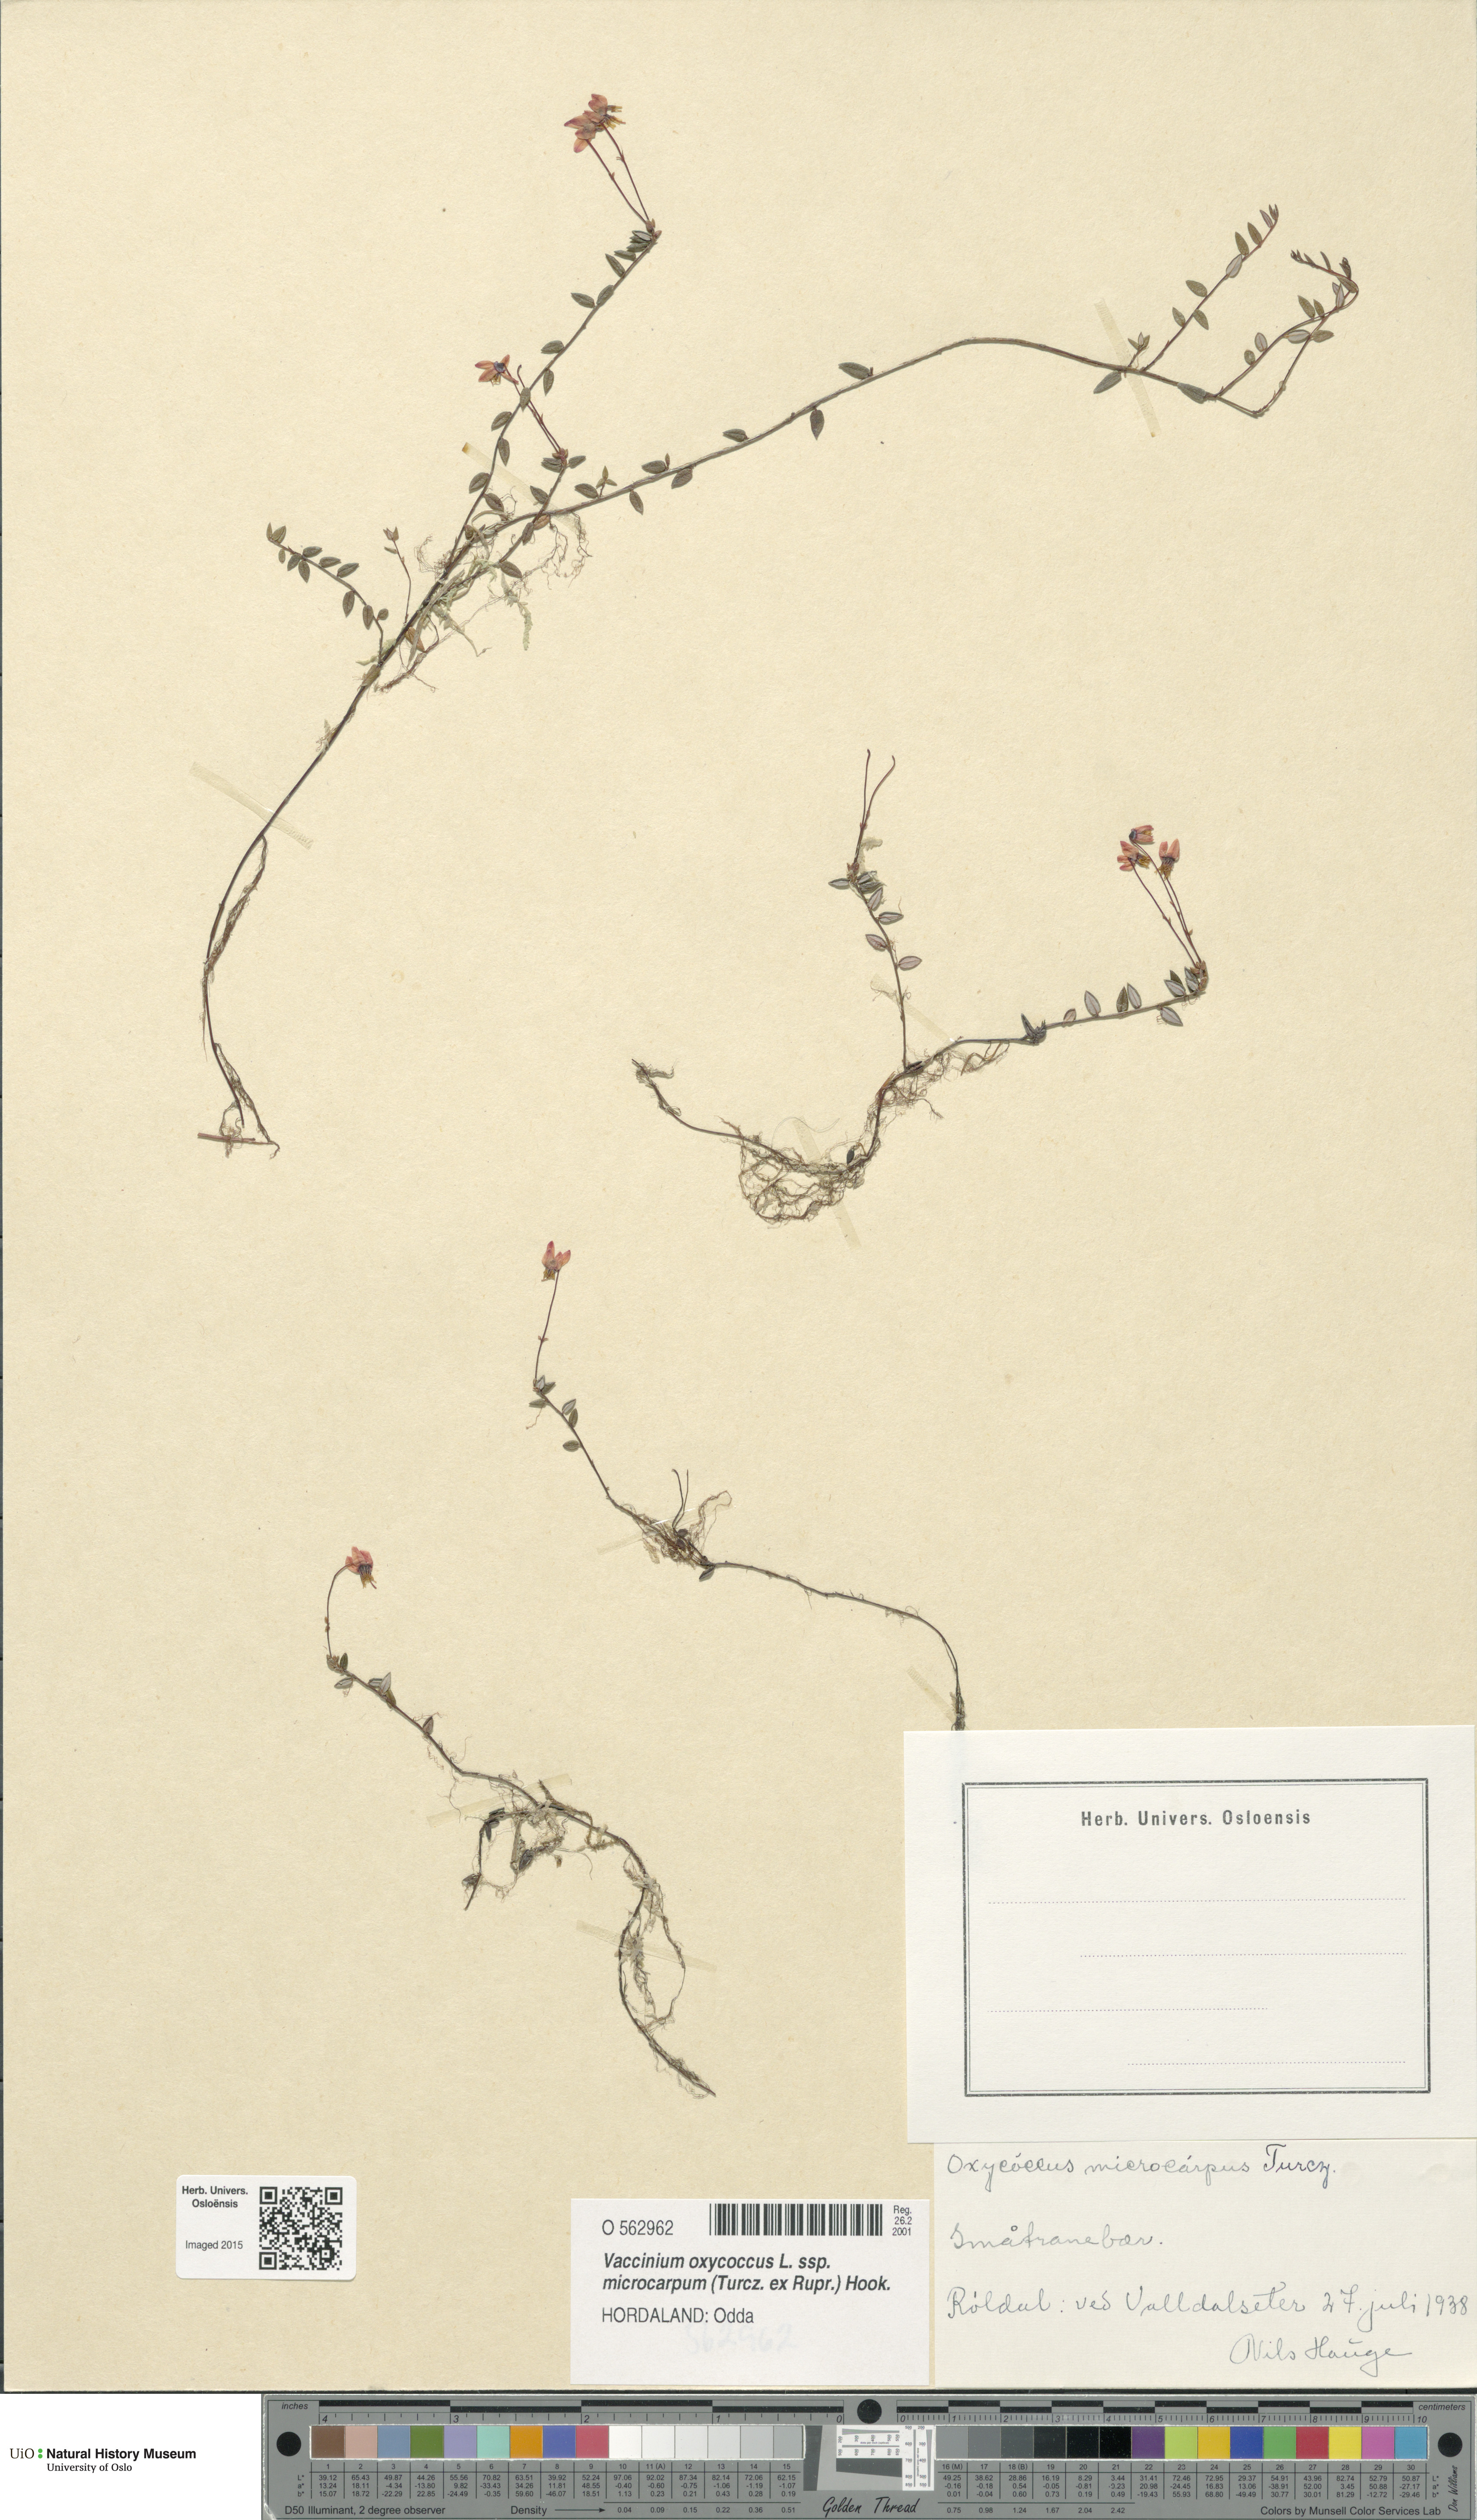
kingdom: Plantae
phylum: Tracheophyta
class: Magnoliopsida
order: Ericales
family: Ericaceae
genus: Vaccinium
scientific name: Vaccinium microcarpum
